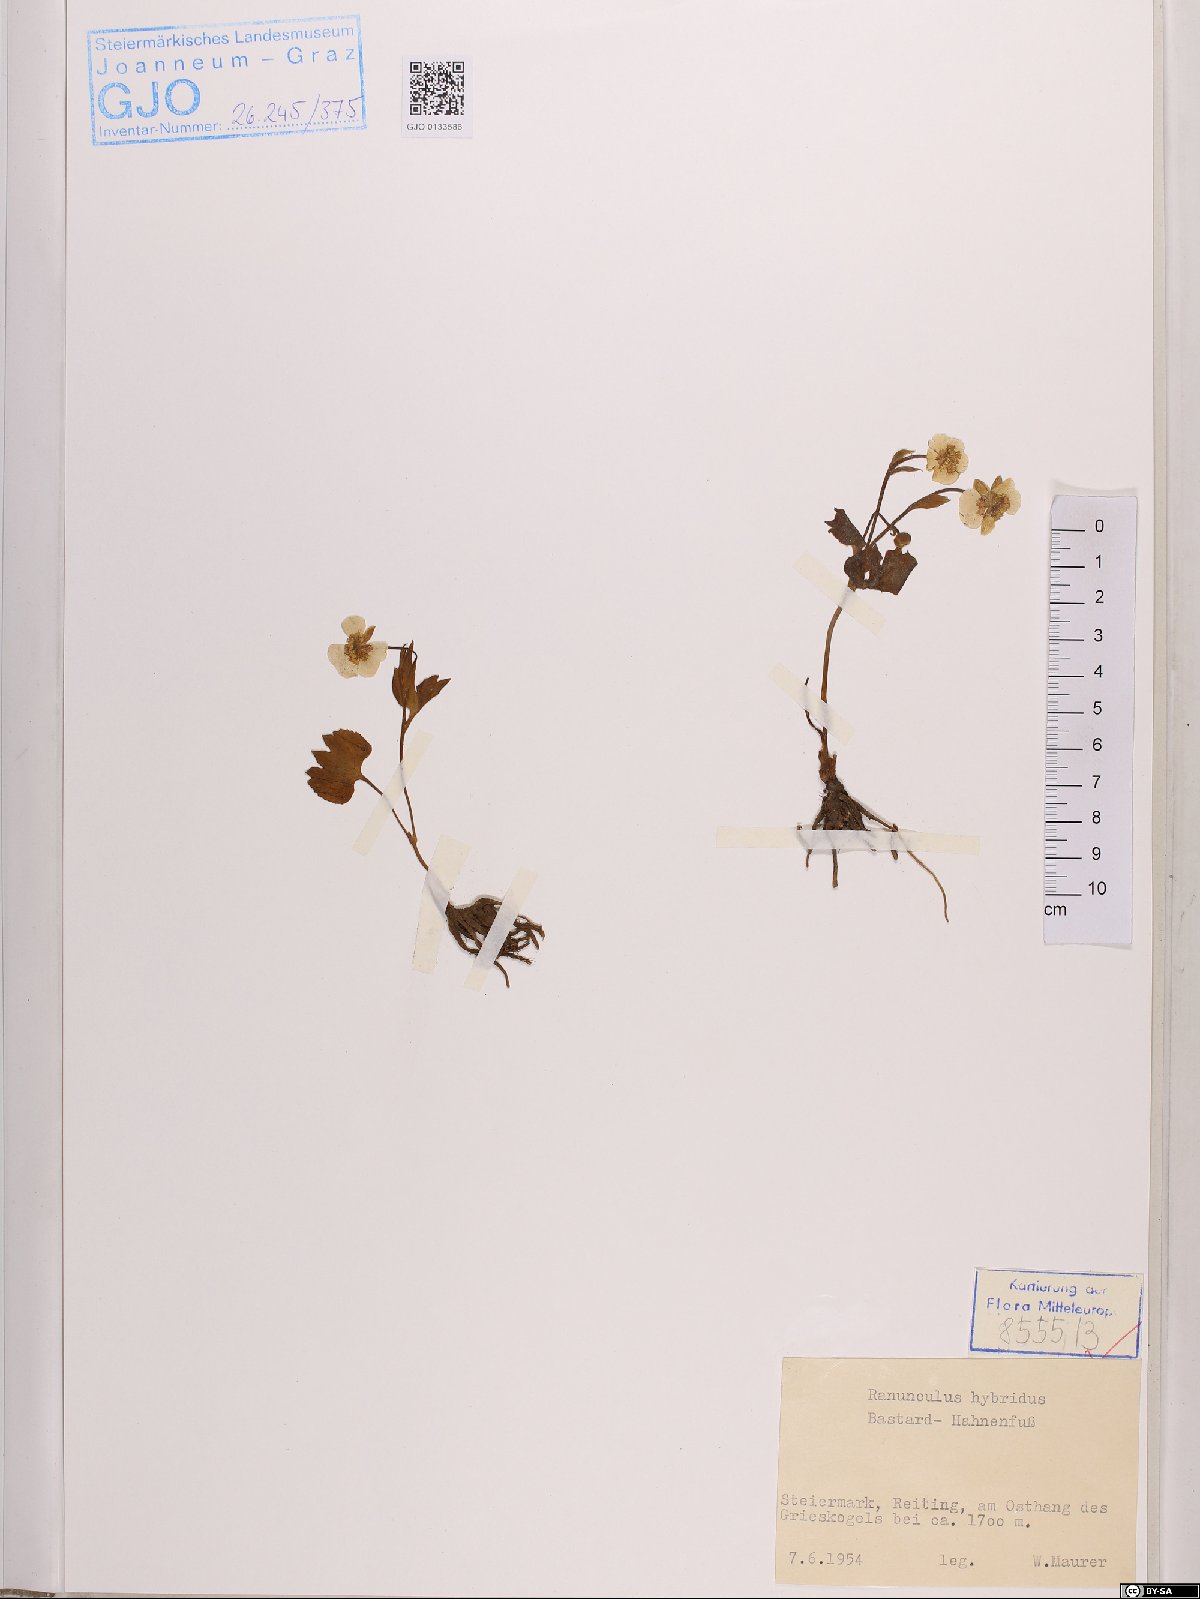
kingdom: Plantae
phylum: Tracheophyta
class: Magnoliopsida
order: Ranunculales
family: Ranunculaceae
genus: Ranunculus
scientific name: Ranunculus hybridus
